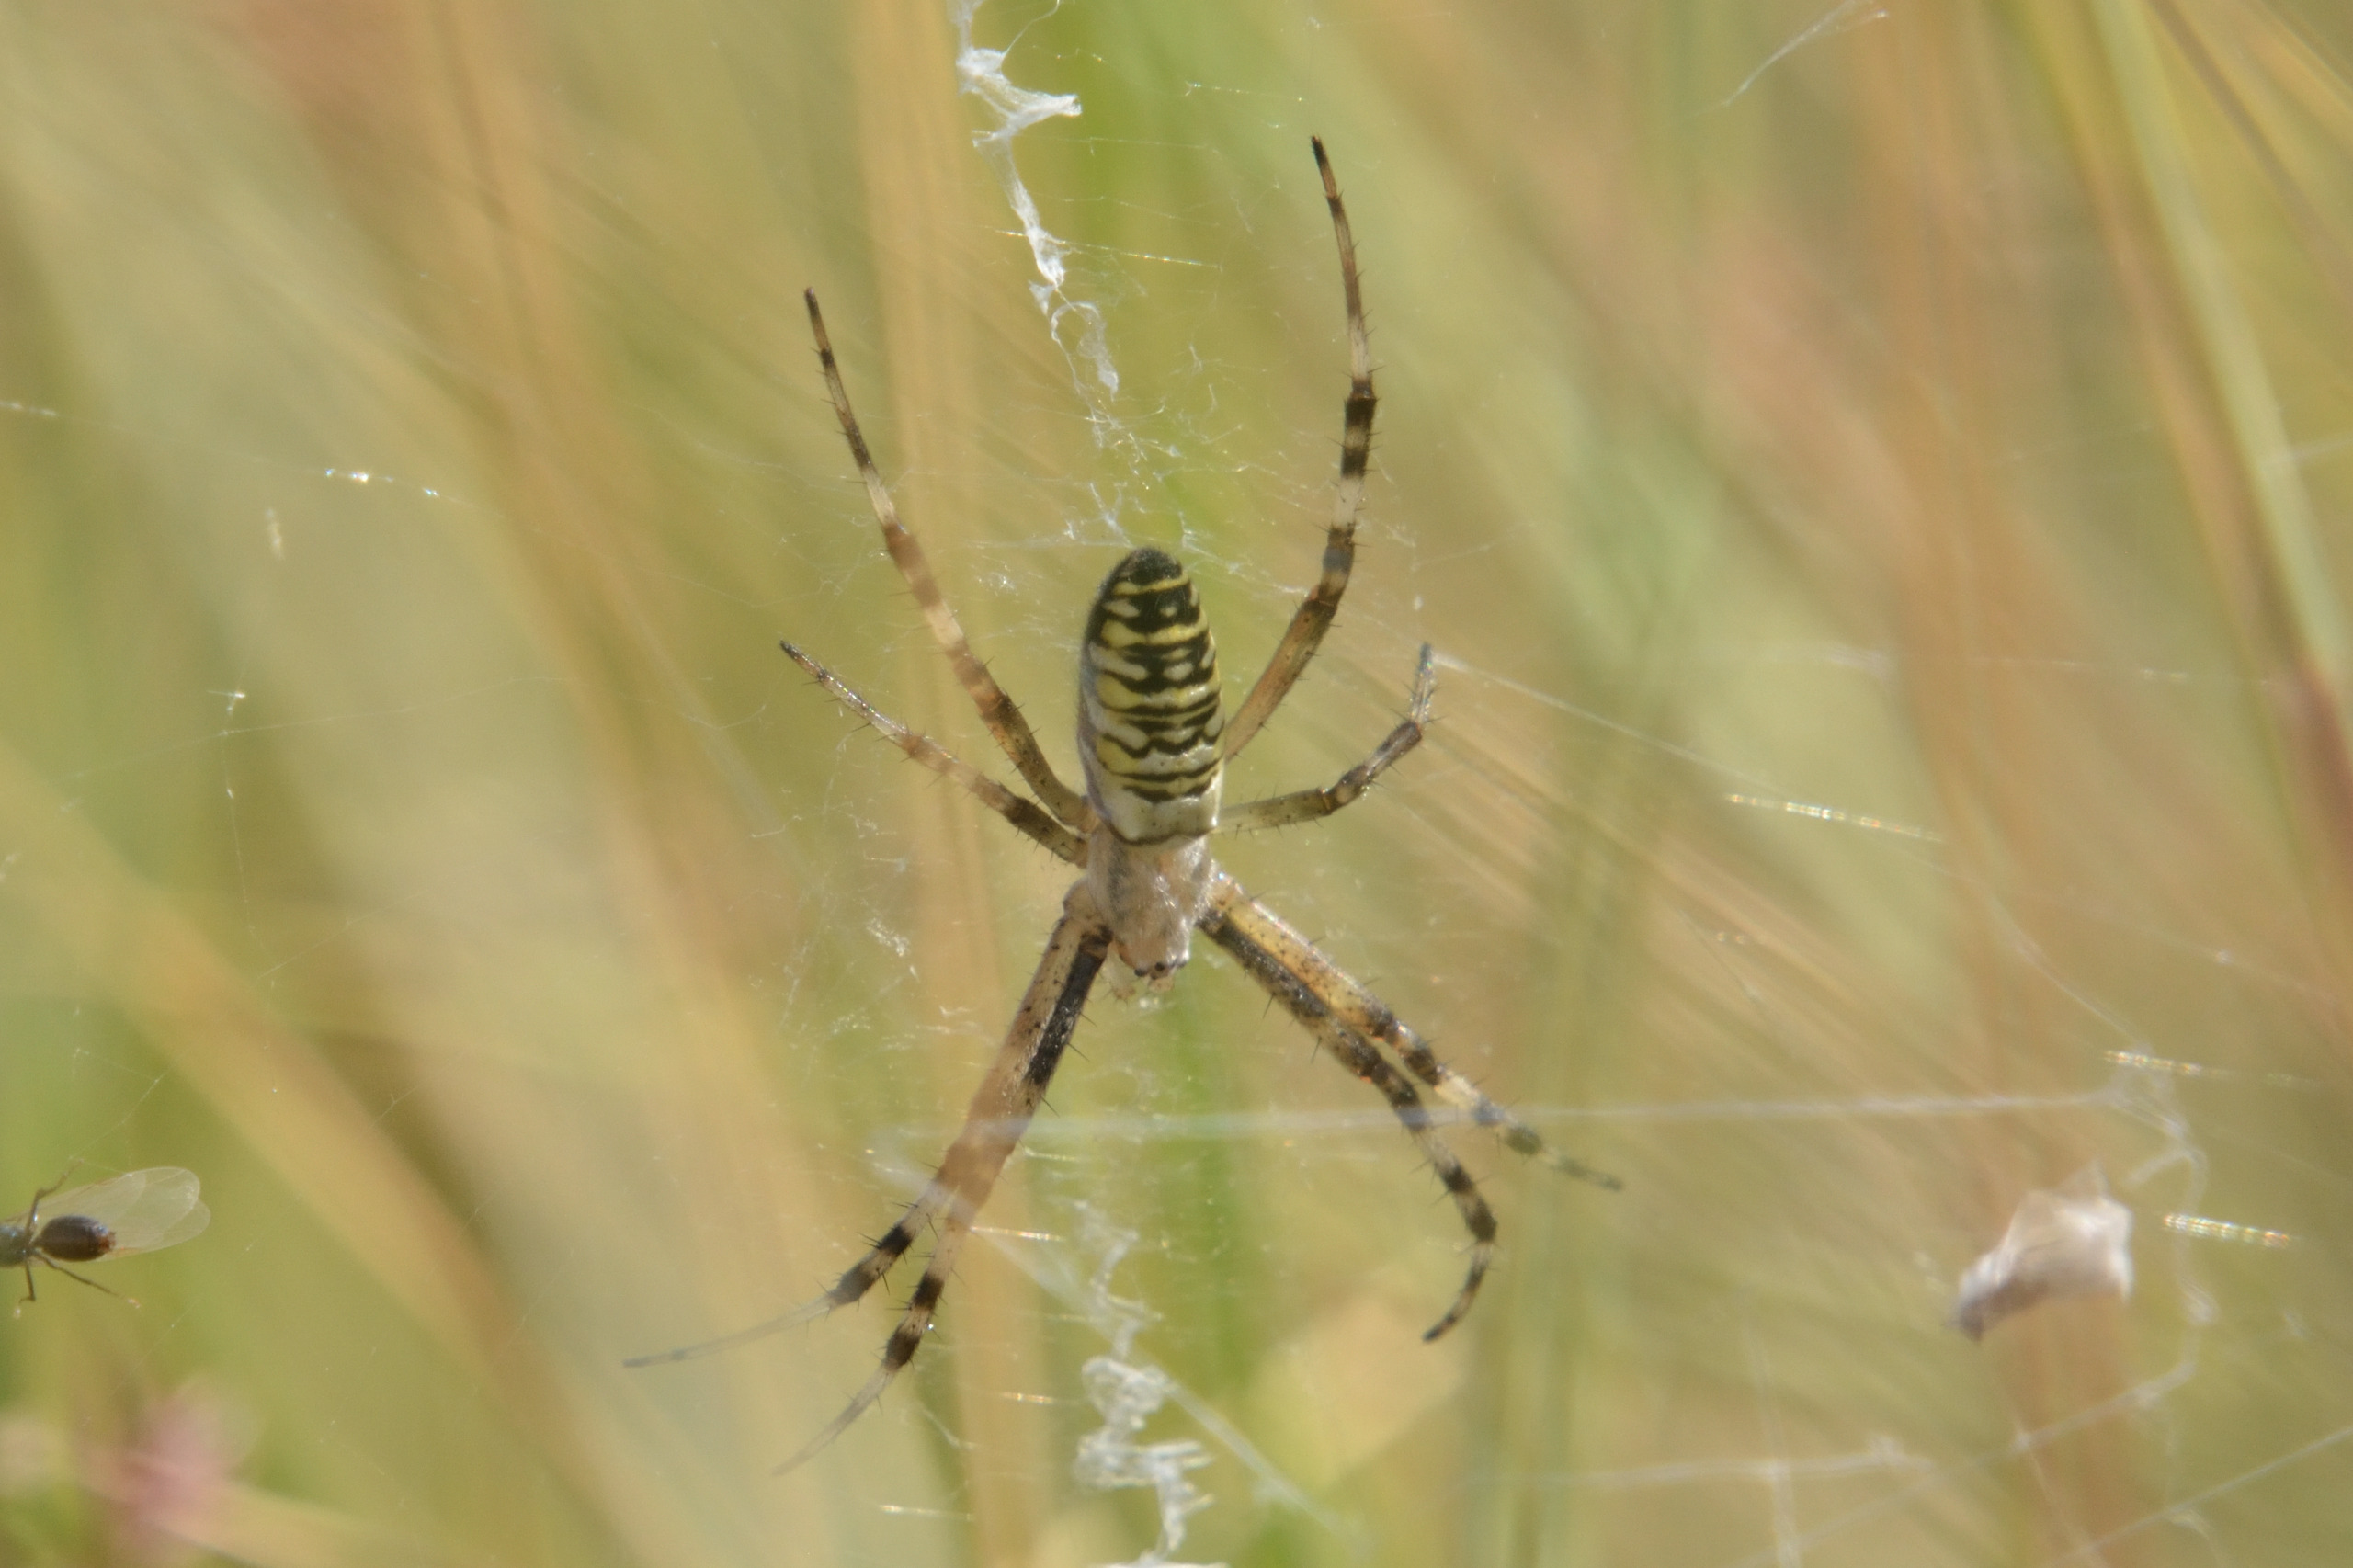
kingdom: Animalia
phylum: Arthropoda
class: Arachnida
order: Araneae
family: Araneidae
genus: Argiope
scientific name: Argiope bruennichi
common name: Hvepseedderkop
